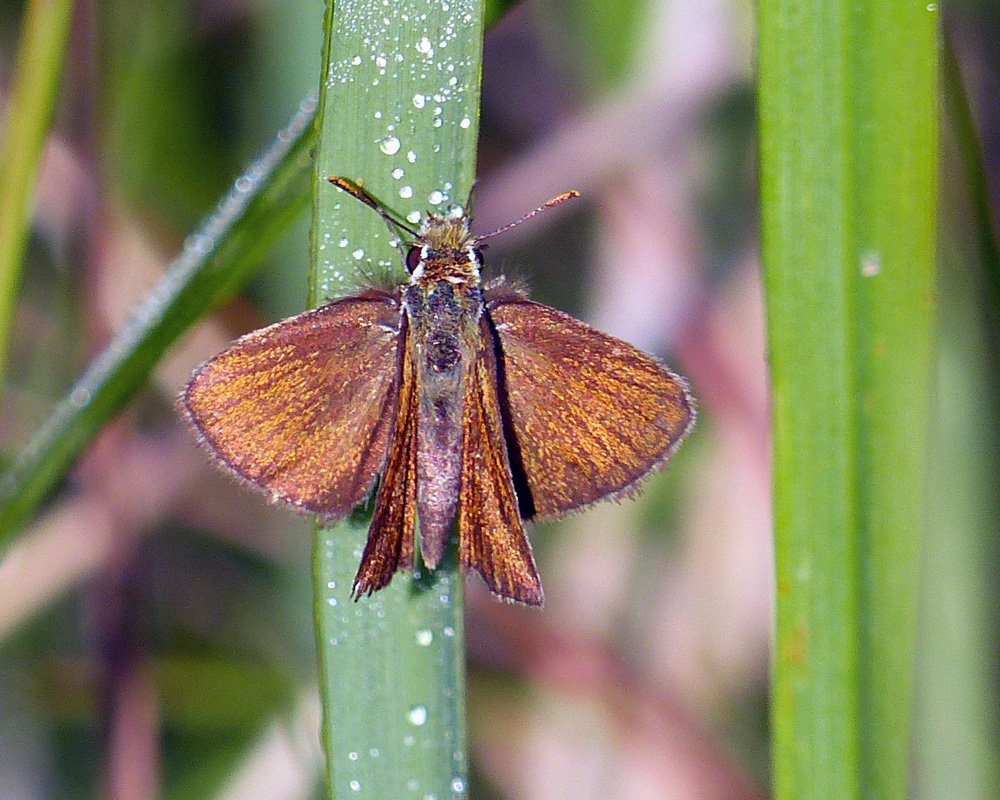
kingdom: Animalia
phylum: Arthropoda
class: Insecta
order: Lepidoptera
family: Hesperiidae
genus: Oarisma
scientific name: Oarisma garita
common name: Garita Skipperling
